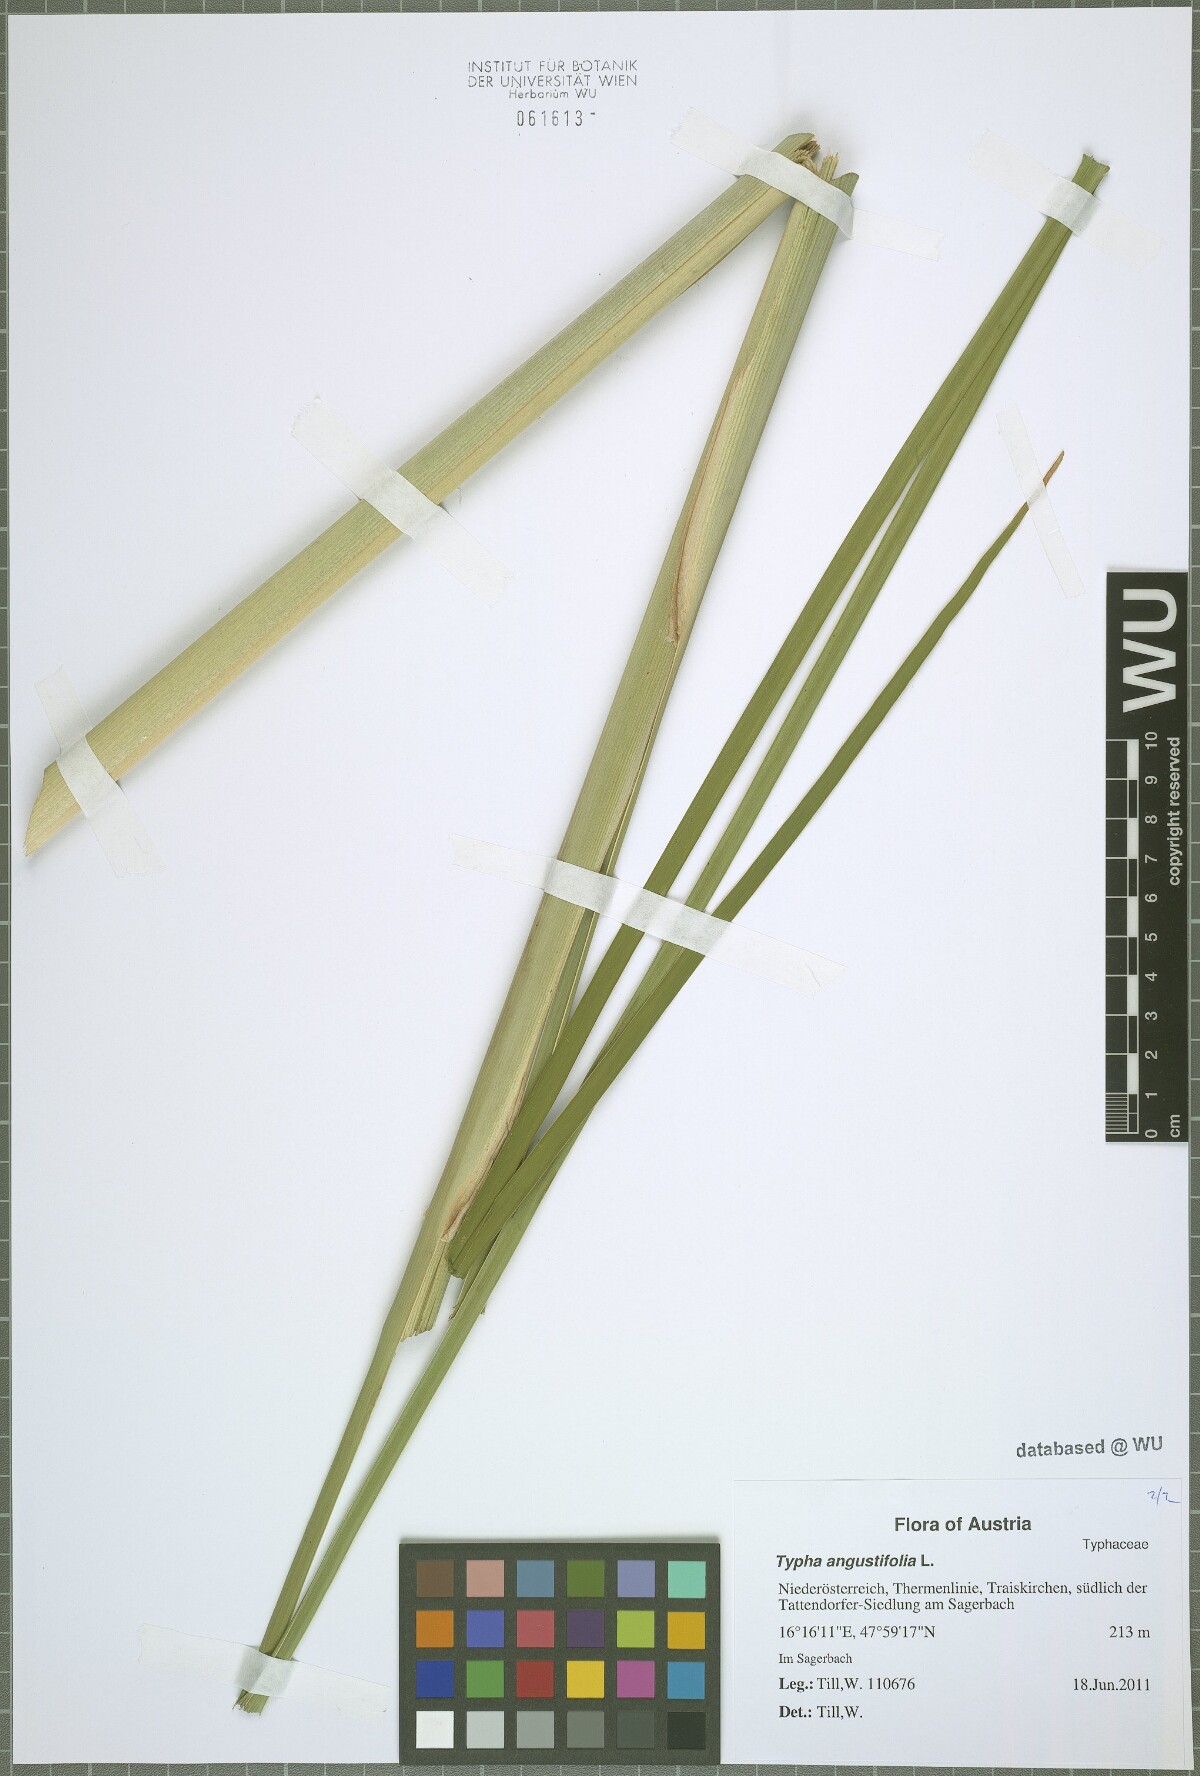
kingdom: Plantae
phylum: Tracheophyta
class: Liliopsida
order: Poales
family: Typhaceae
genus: Typha
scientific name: Typha angustifolia
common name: Lesser bulrush
